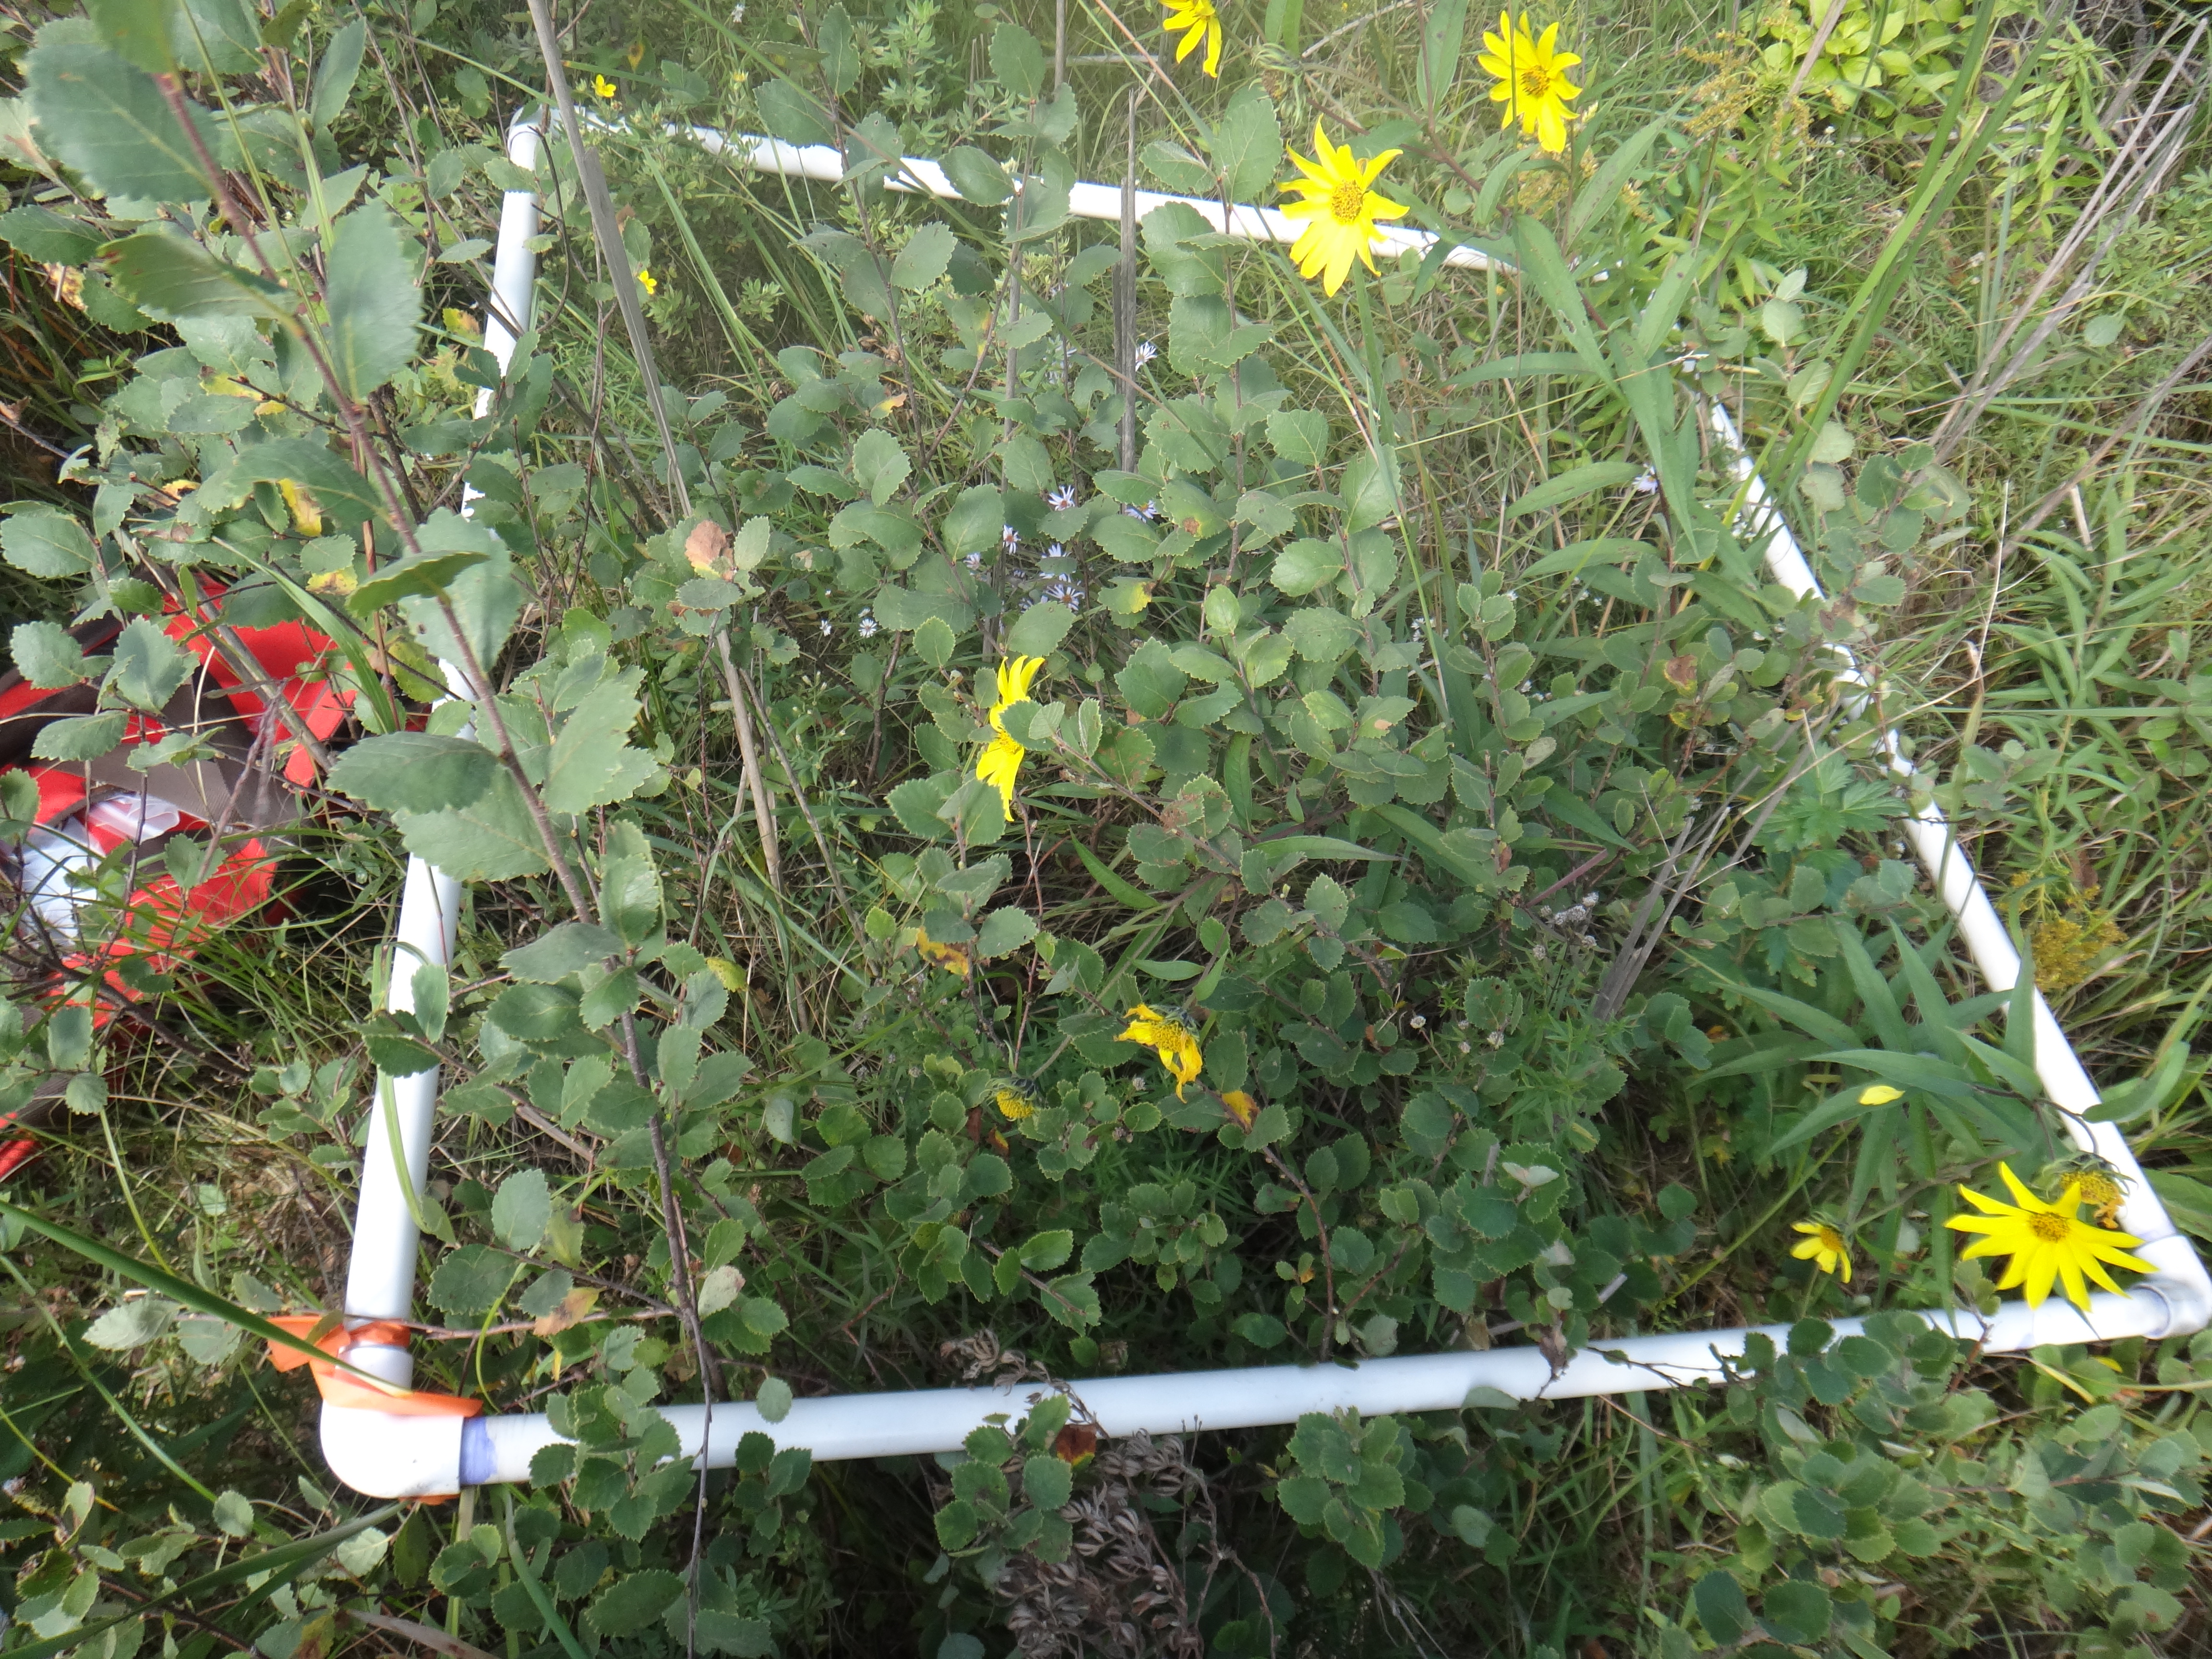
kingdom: Plantae
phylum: Tracheophyta
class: Magnoliopsida
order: Gentianales
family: Gentianaceae
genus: Gentianopsis
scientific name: Gentianopsis virgata
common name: Lesser fringed-gentian
